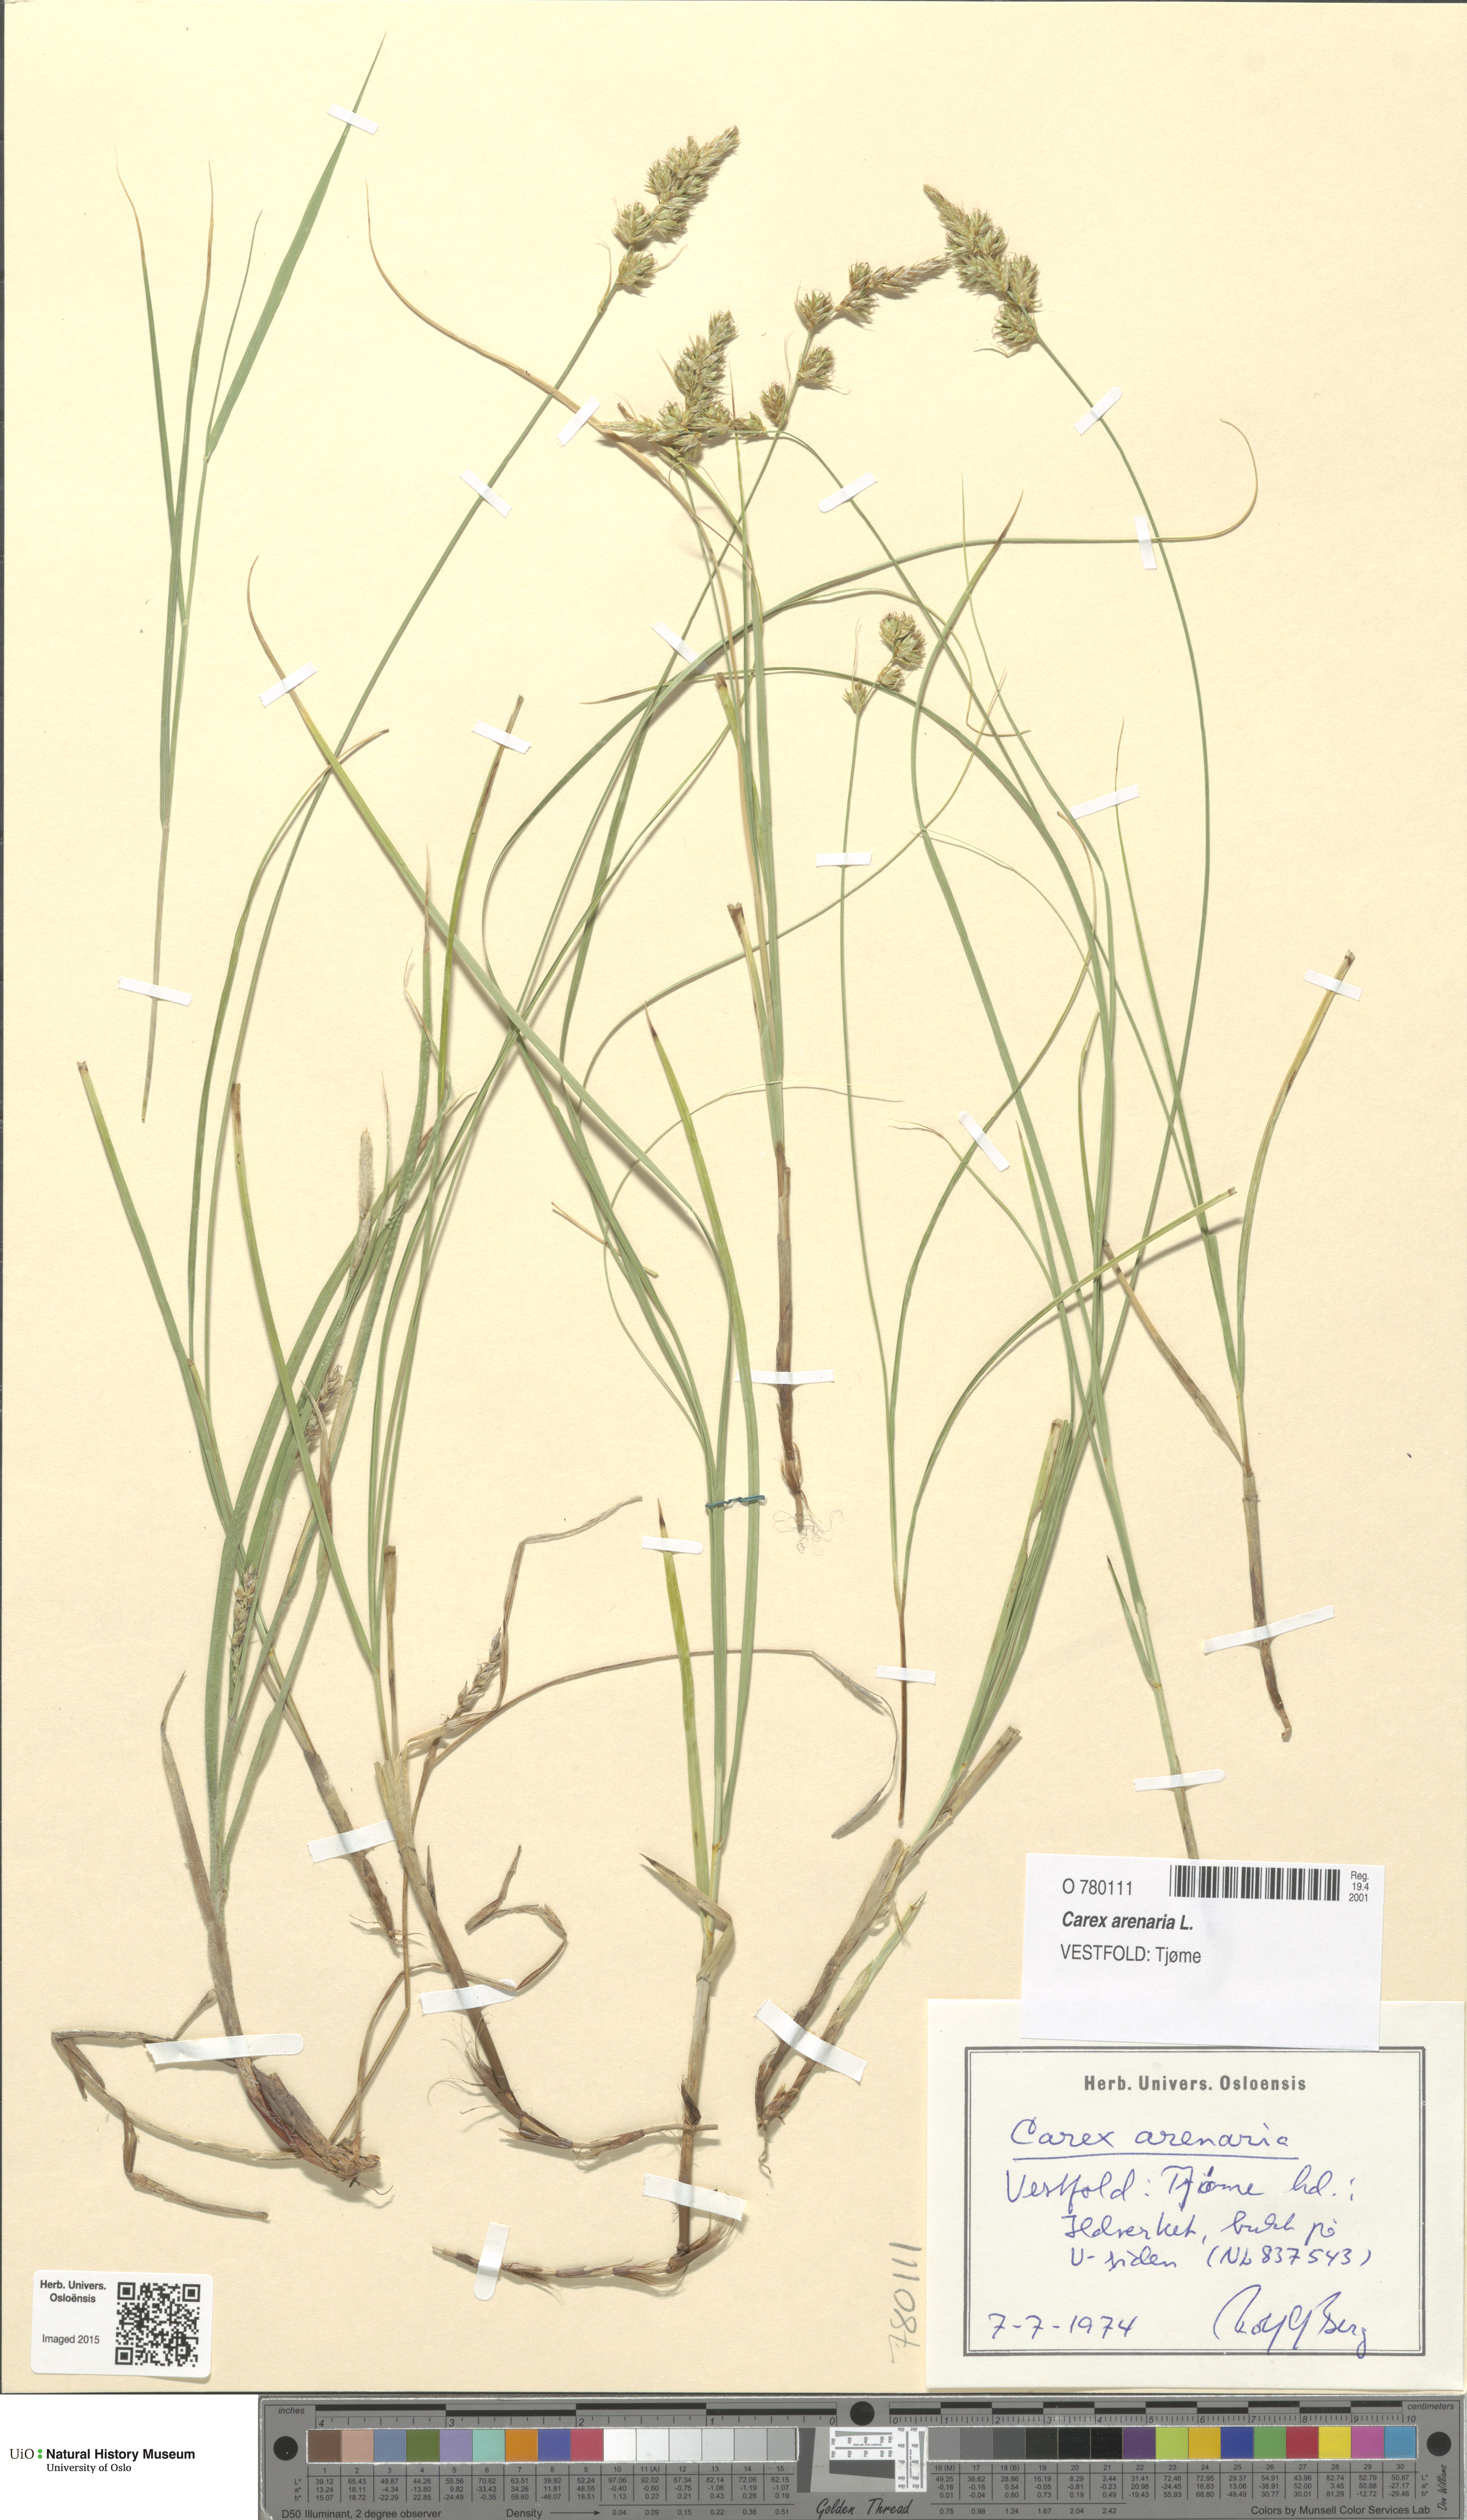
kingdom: Plantae
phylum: Tracheophyta
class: Liliopsida
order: Poales
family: Cyperaceae
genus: Carex
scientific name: Carex arenaria
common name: Sand sedge
